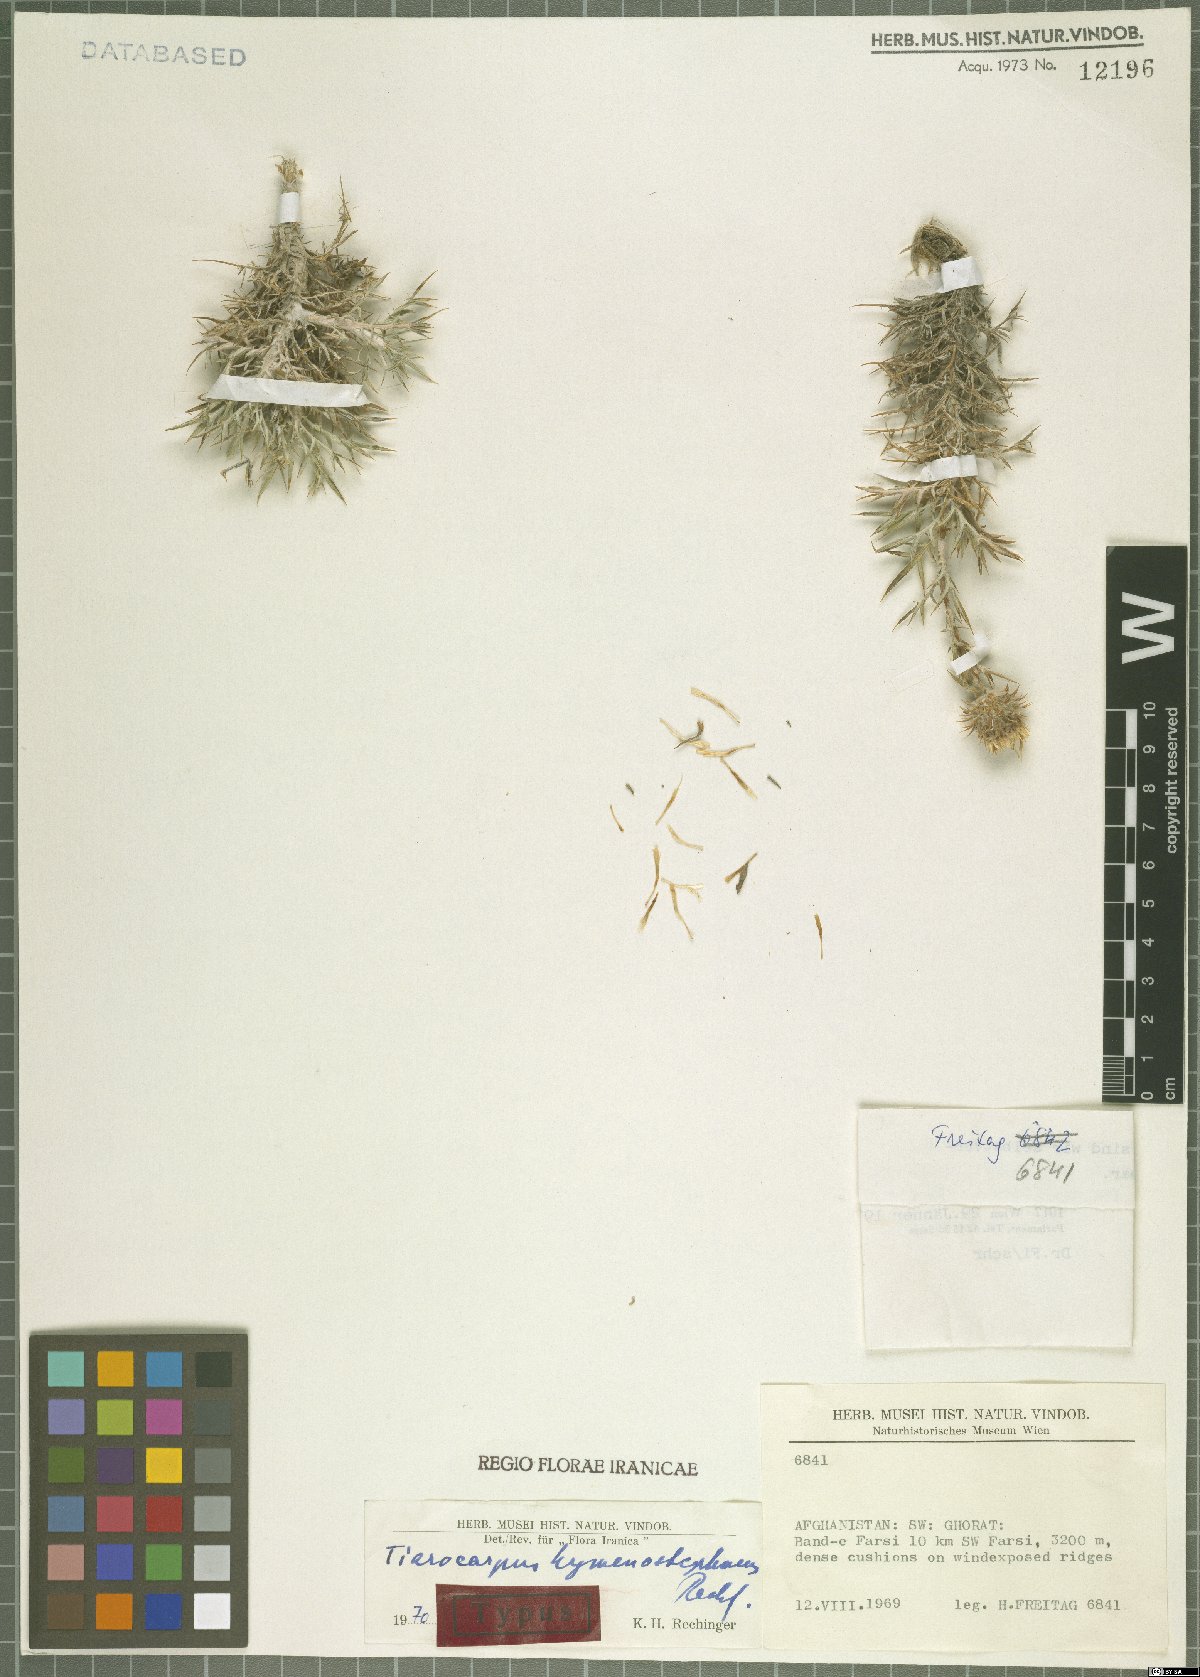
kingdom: Plantae
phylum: Tracheophyta
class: Magnoliopsida
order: Asterales
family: Asteraceae
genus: Cousinia
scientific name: Cousinia hymenostephanus
